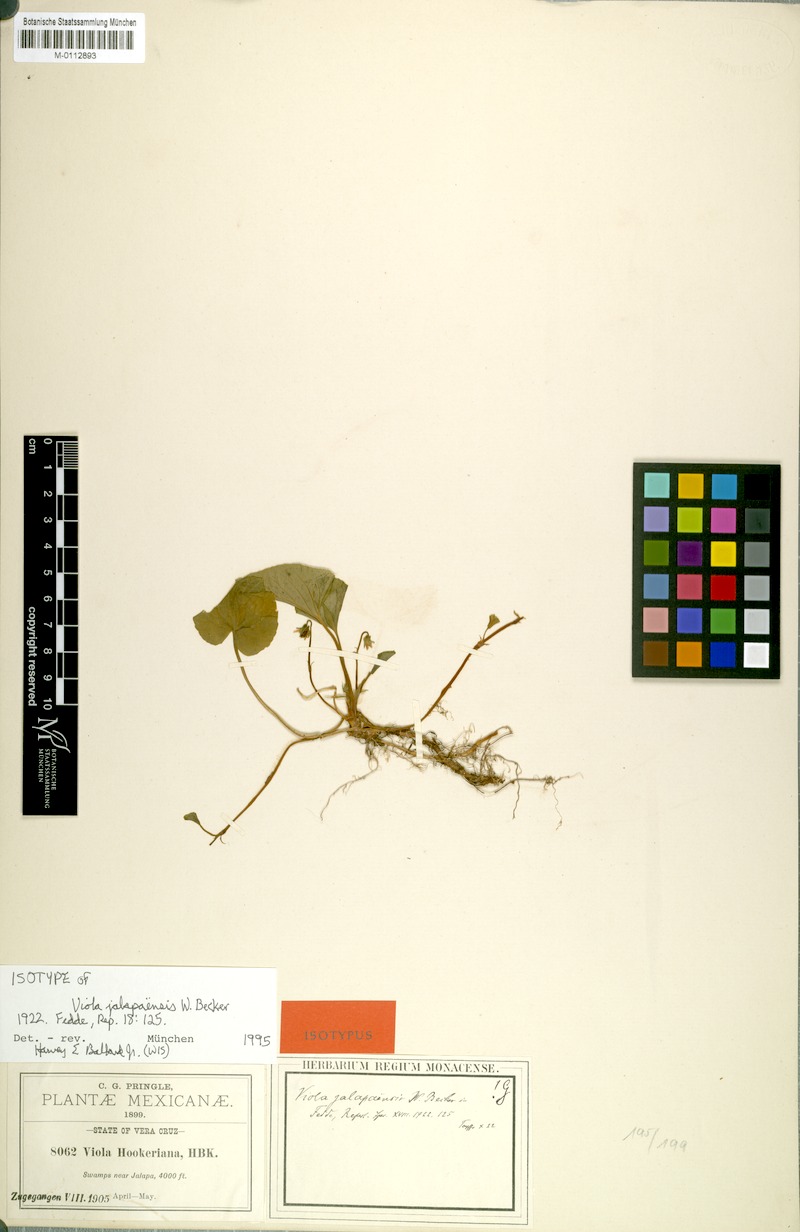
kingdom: Plantae
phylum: Tracheophyta
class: Magnoliopsida
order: Malpighiales
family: Violaceae
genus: Viola
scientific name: Viola jalapaensis
